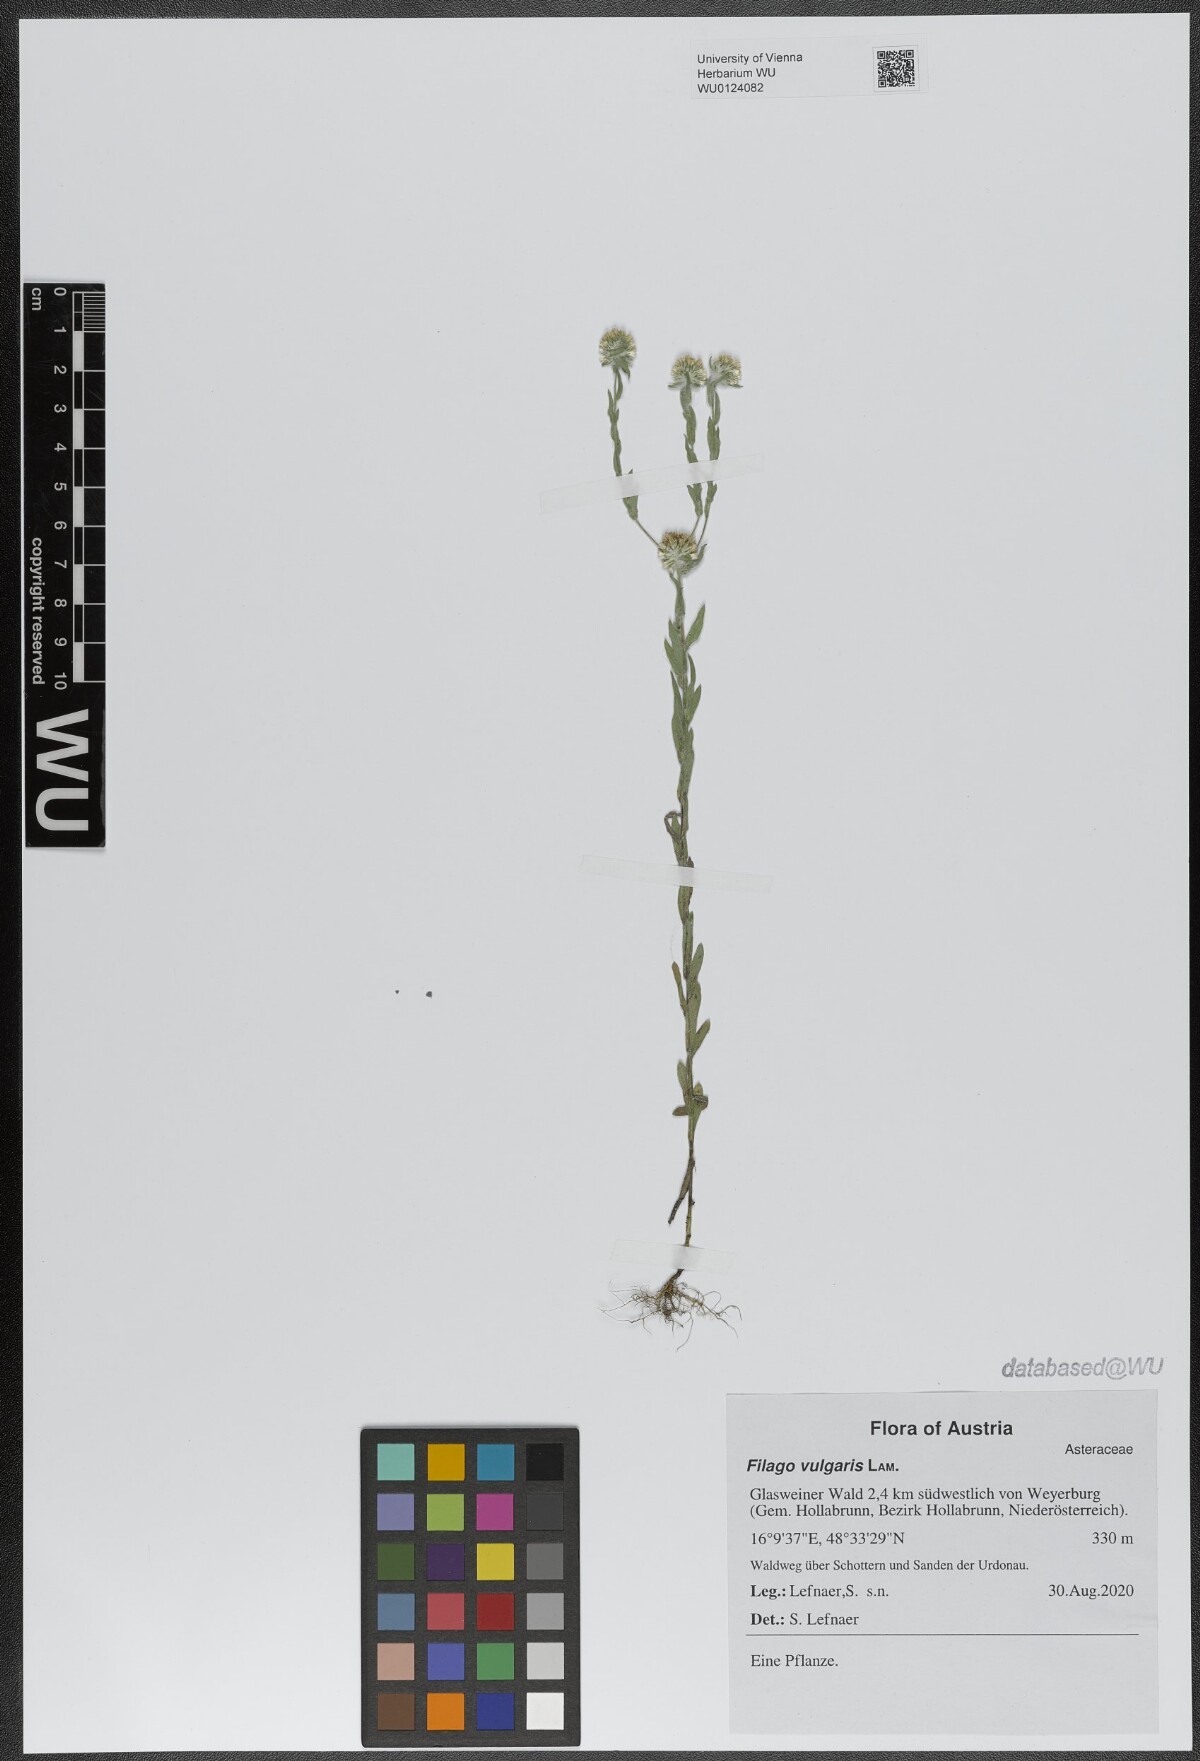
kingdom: Plantae
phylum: Tracheophyta
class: Magnoliopsida
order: Asterales
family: Asteraceae
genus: Filago
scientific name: Filago germanica
